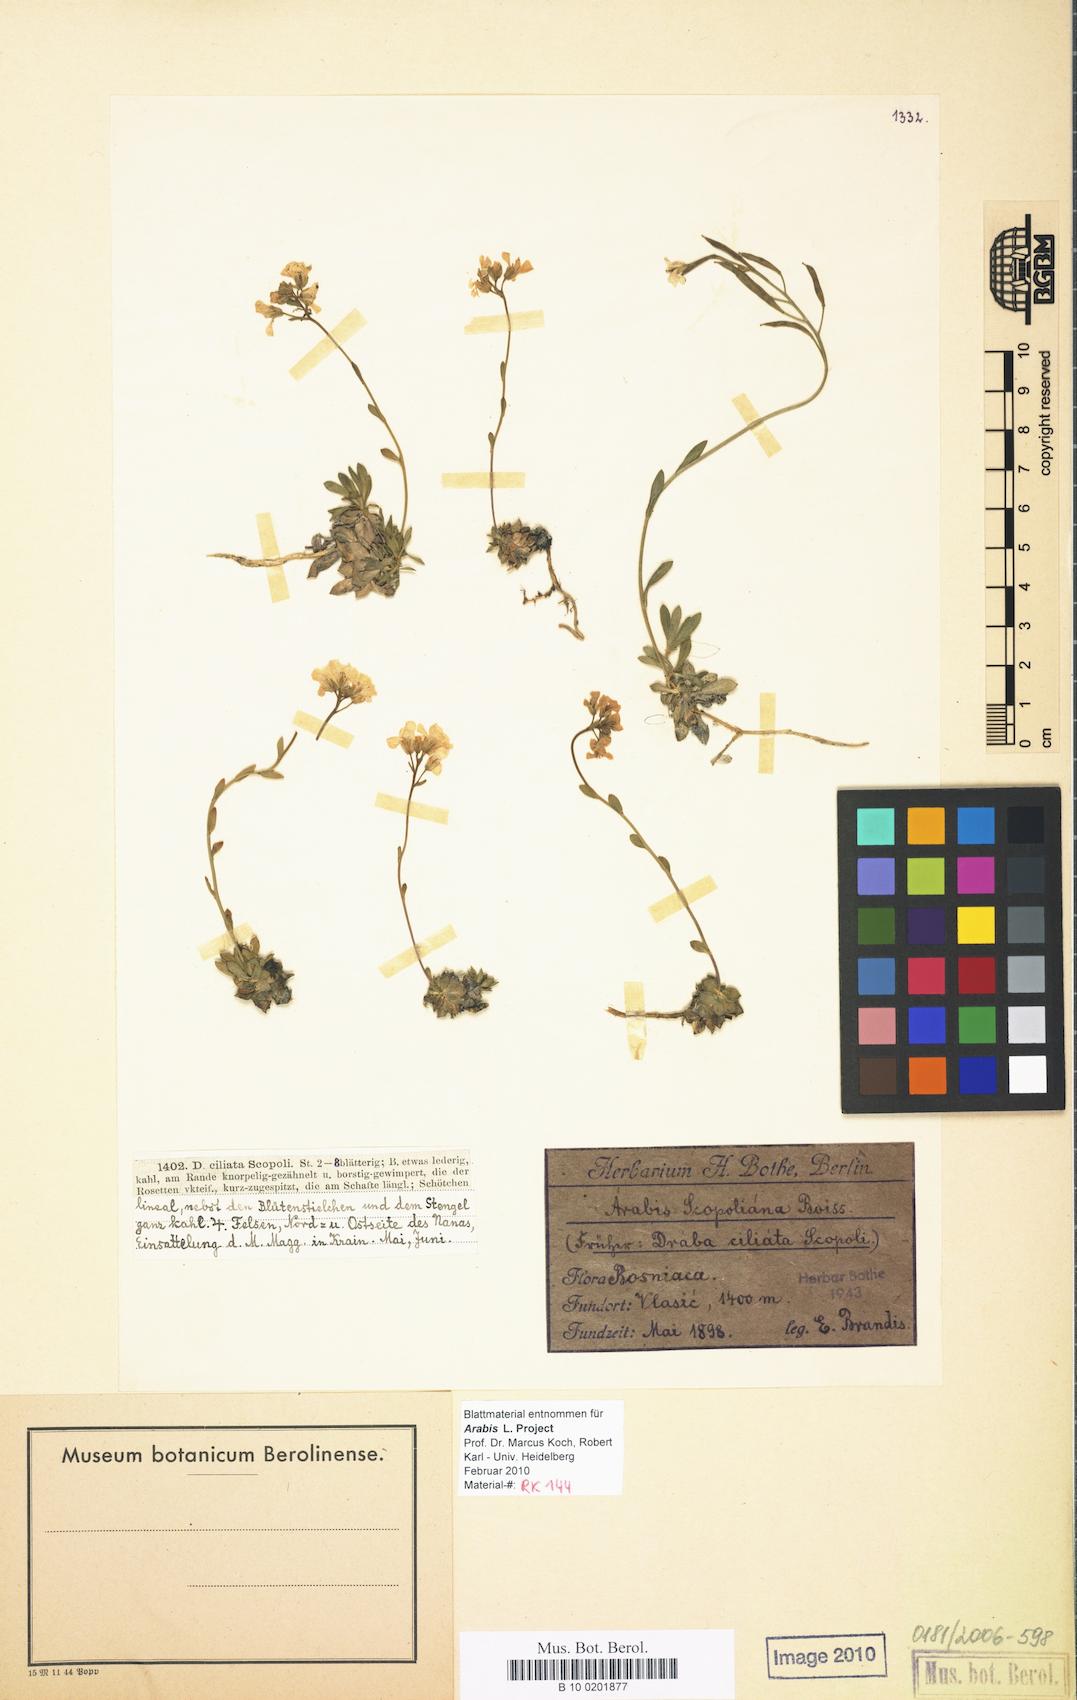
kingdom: Plantae
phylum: Tracheophyta
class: Magnoliopsida
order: Brassicales
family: Brassicaceae
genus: Arabis
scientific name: Arabis scopoliana
